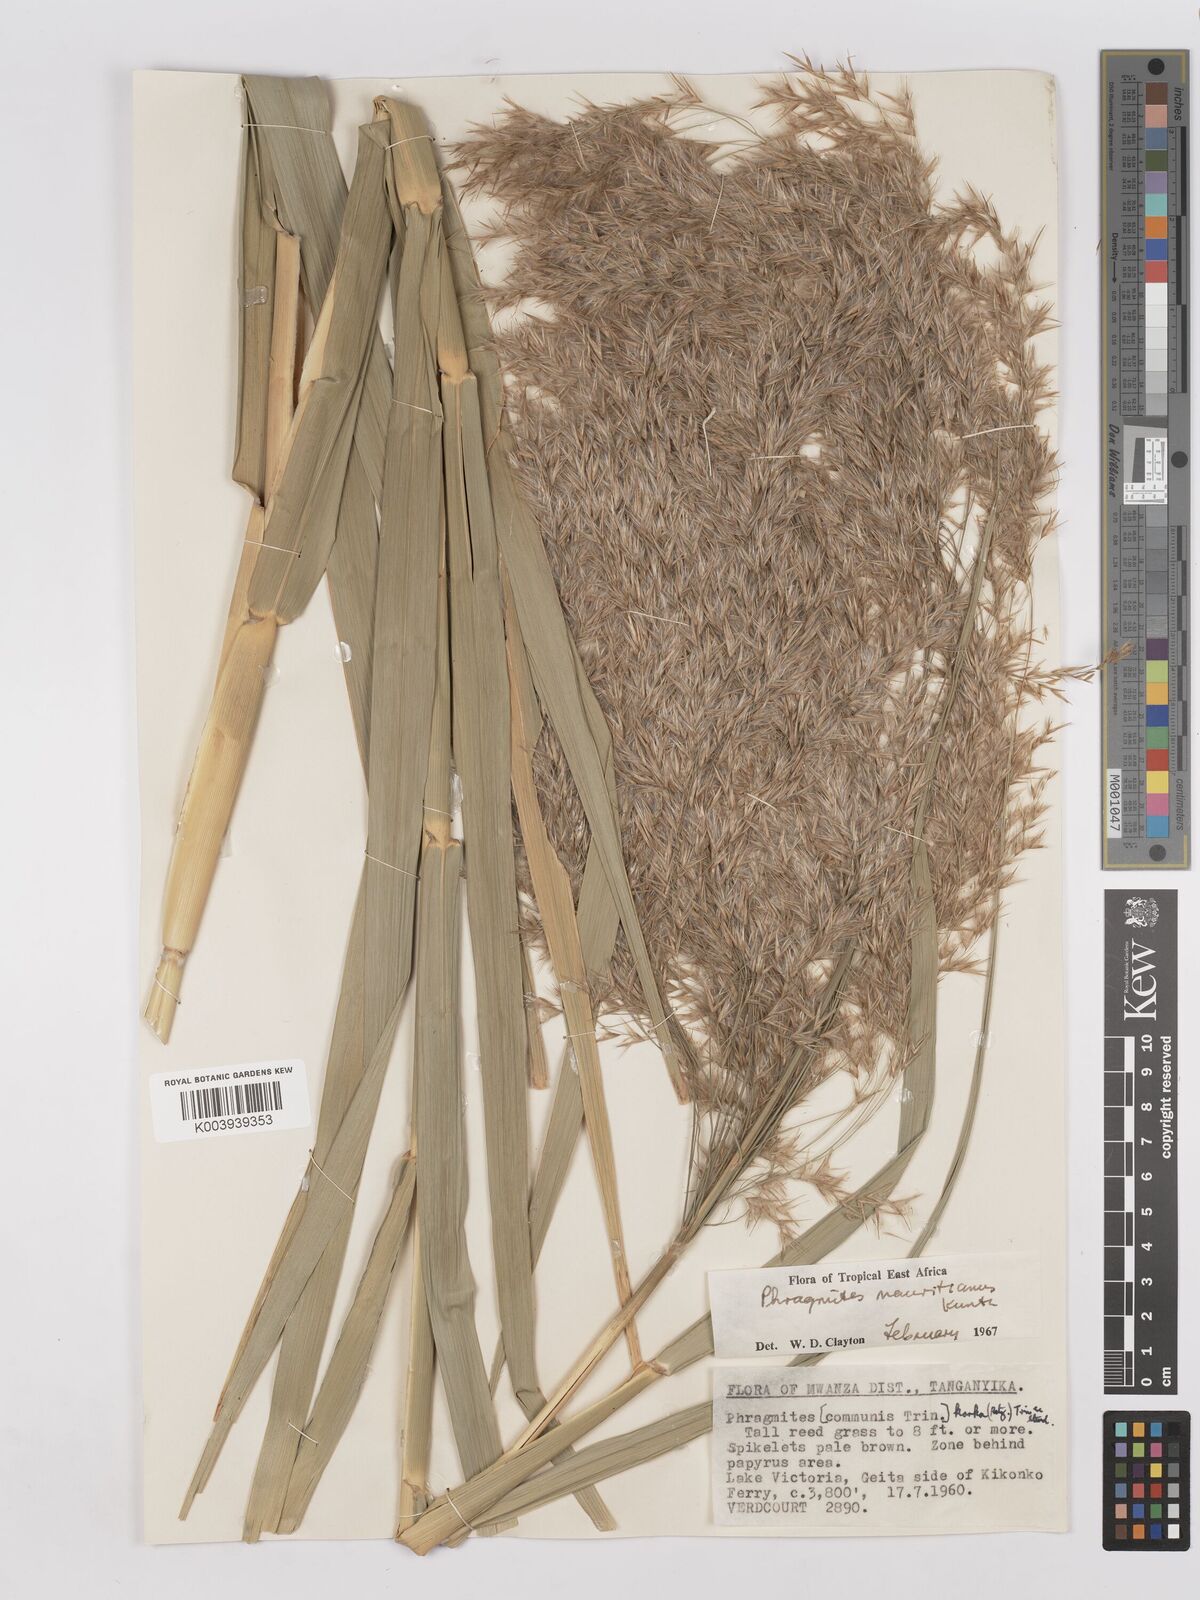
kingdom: Plantae
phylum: Tracheophyta
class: Liliopsida
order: Poales
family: Poaceae
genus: Phragmites
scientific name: Phragmites mauritianus
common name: Reed grass
